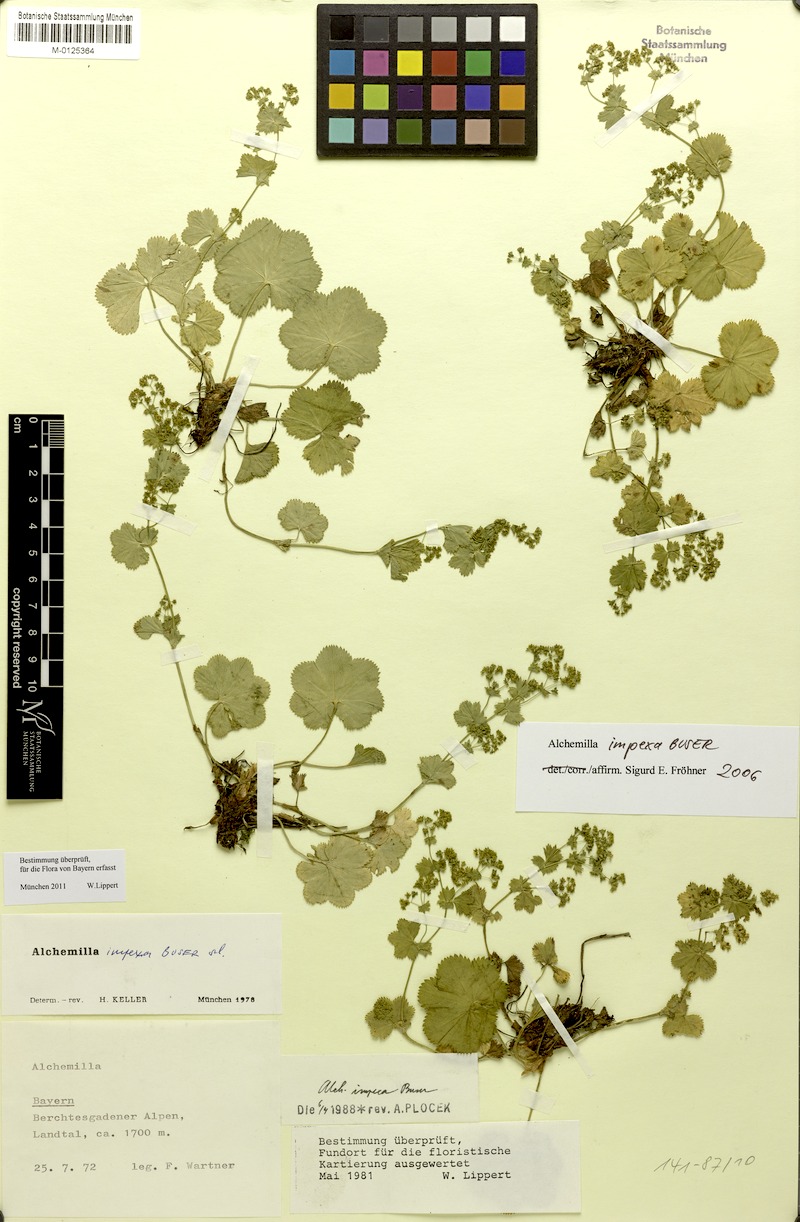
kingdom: Plantae
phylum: Tracheophyta
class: Magnoliopsida
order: Rosales
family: Rosaceae
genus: Alchemilla
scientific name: Alchemilla impexa
